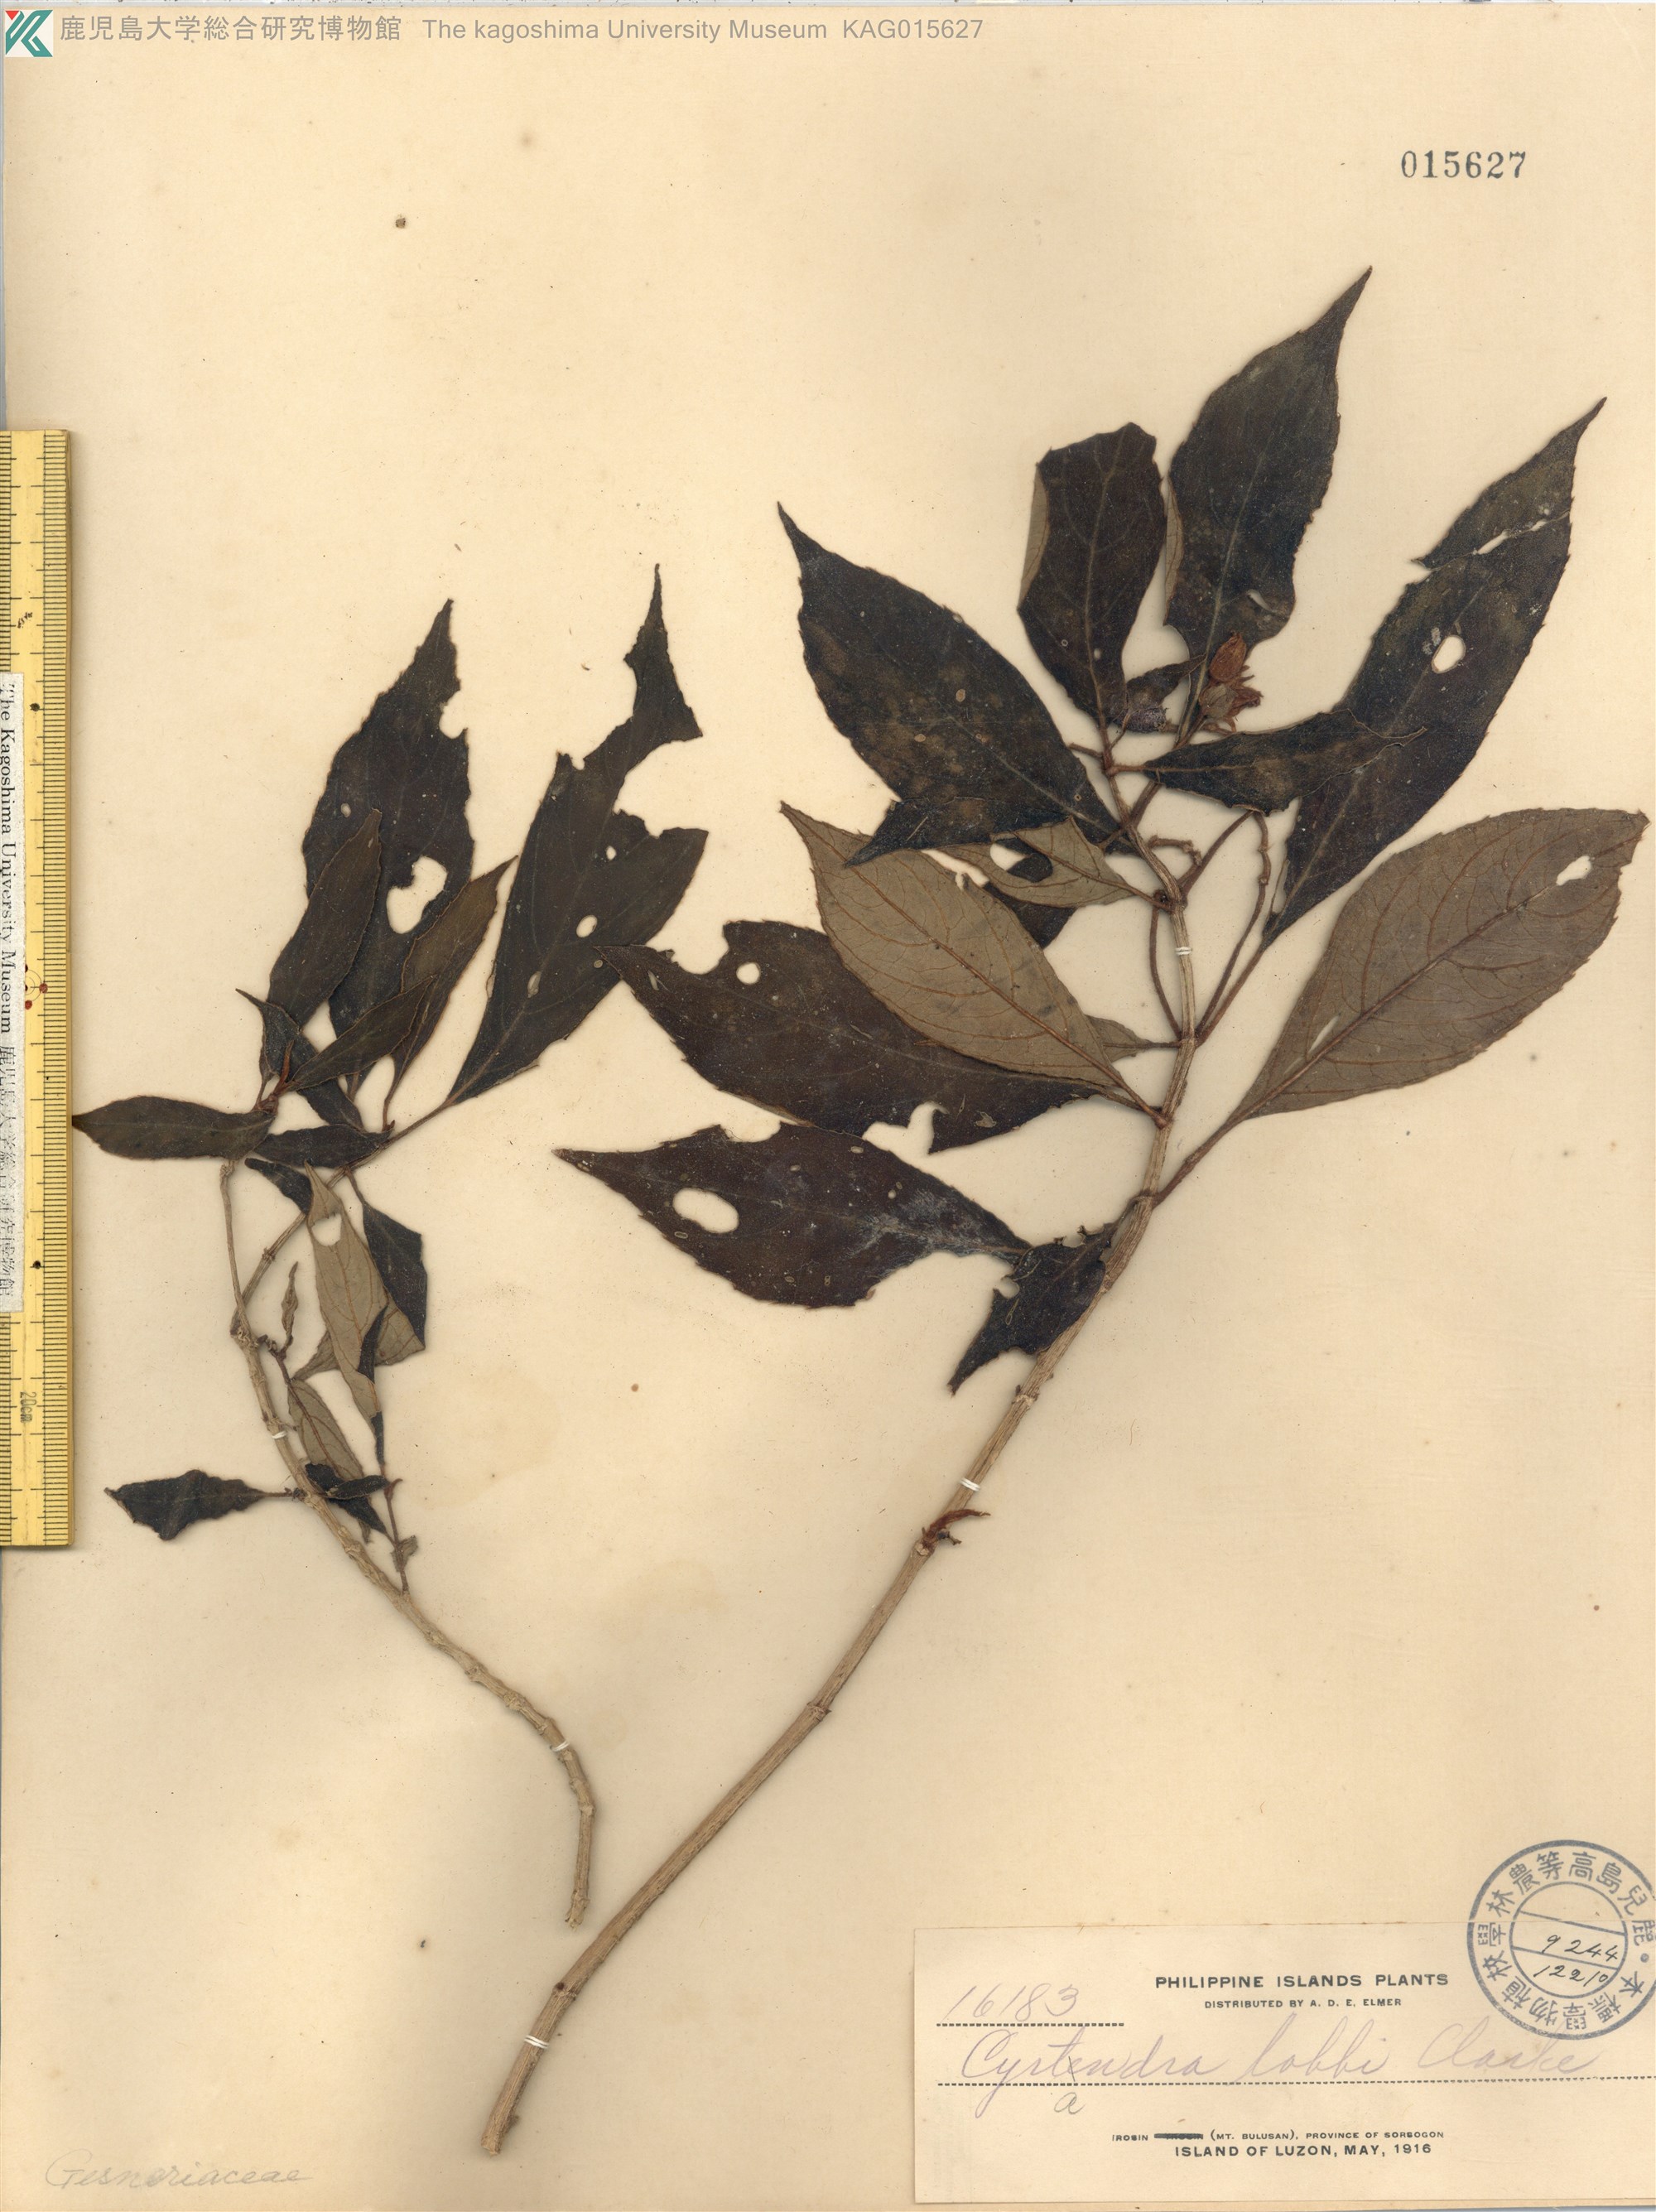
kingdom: Plantae
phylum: Tracheophyta
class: Magnoliopsida
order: Lamiales
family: Gesneriaceae
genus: Cyrtandra
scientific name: Cyrtandra lobbii
